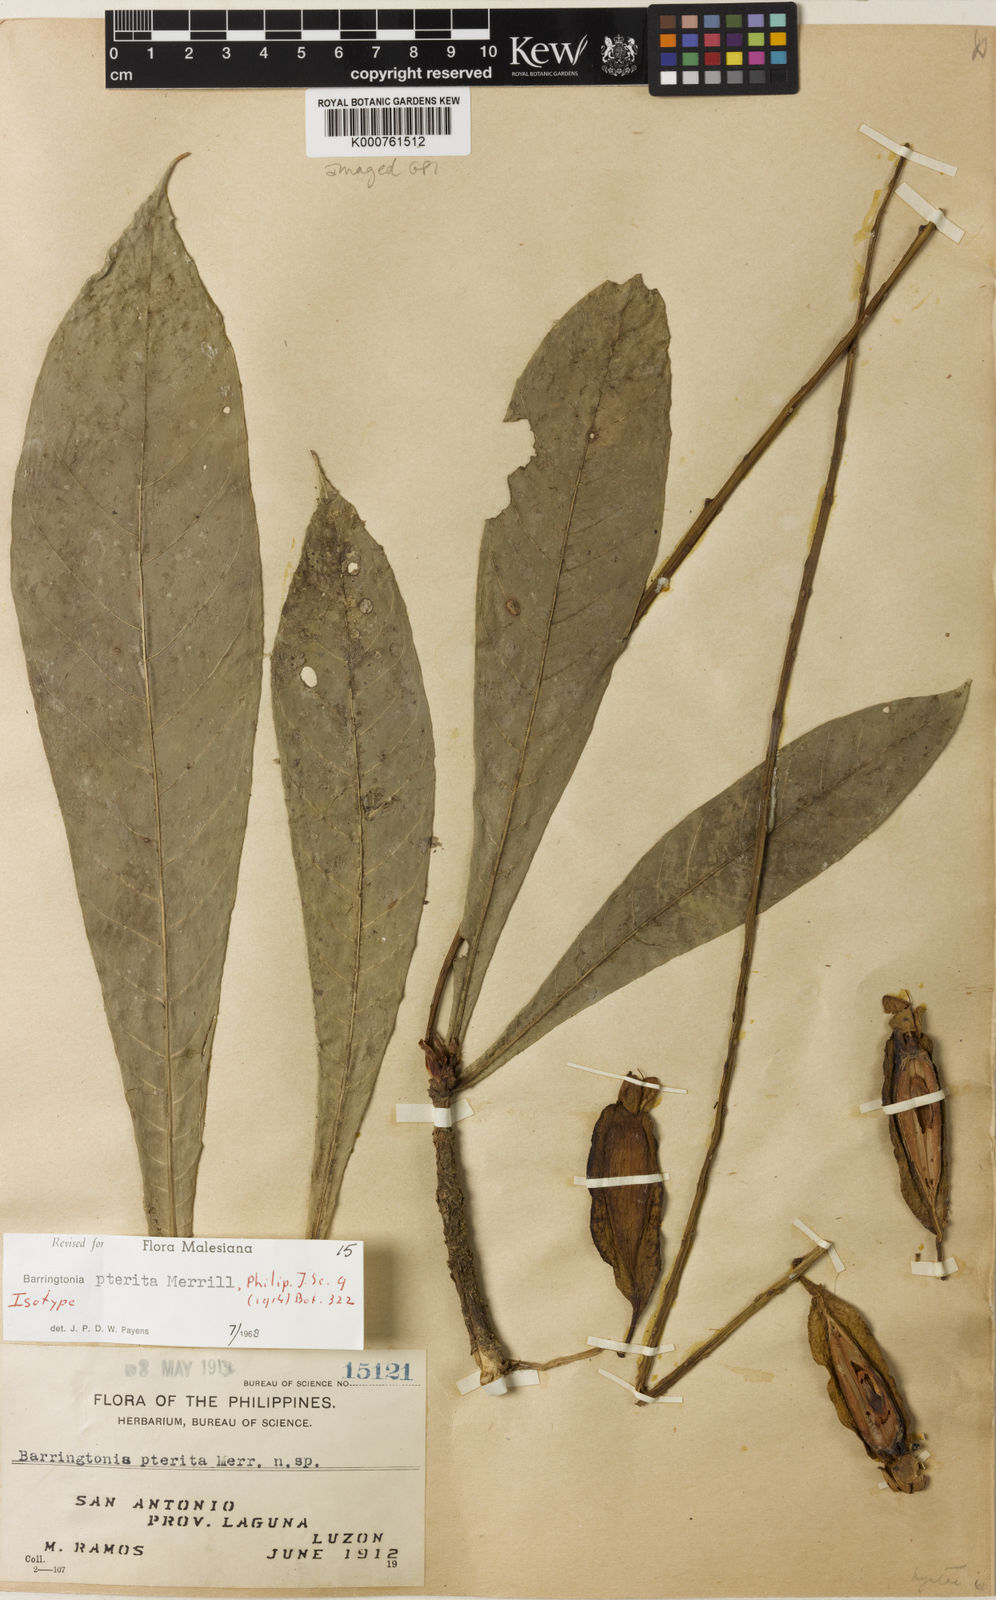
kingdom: Plantae
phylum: Tracheophyta
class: Magnoliopsida
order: Ericales
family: Lecythidaceae
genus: Barringtonia
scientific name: Barringtonia pterita
